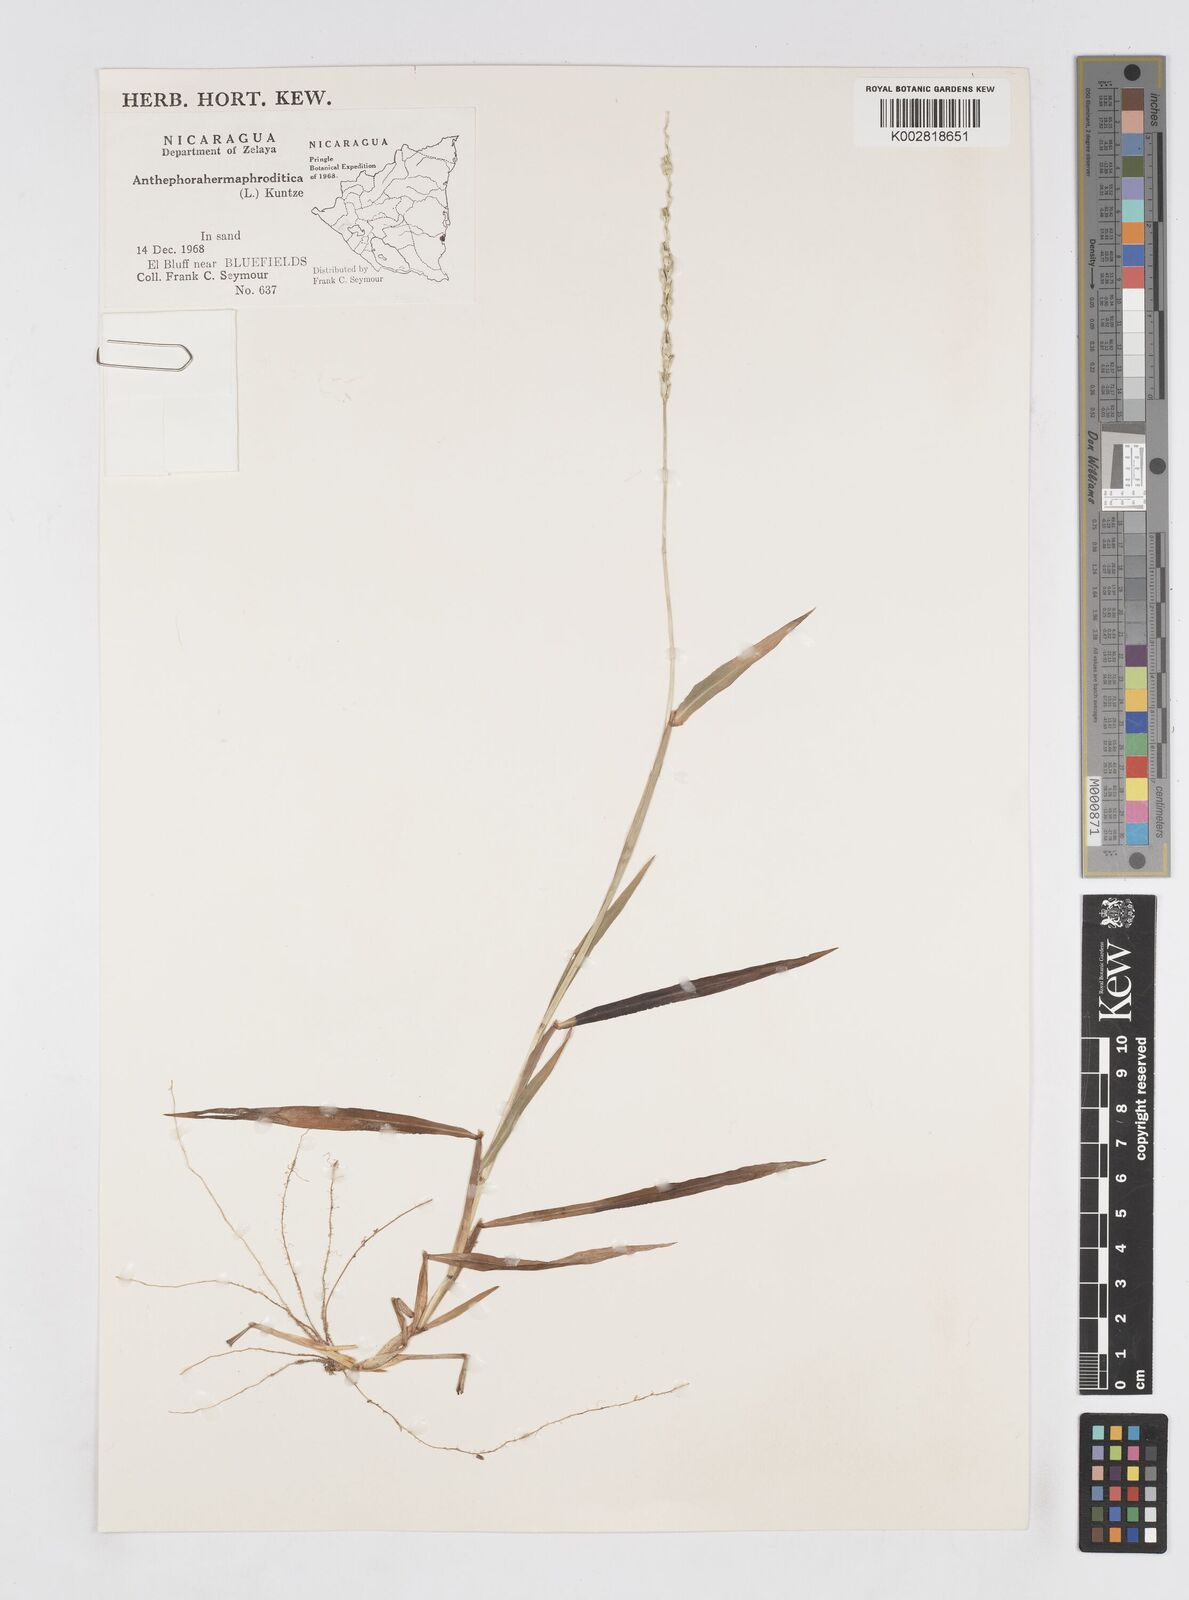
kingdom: Plantae
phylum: Tracheophyta
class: Liliopsida
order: Poales
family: Poaceae
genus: Anthephora
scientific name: Anthephora hermaphrodita
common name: Oldfield grass
